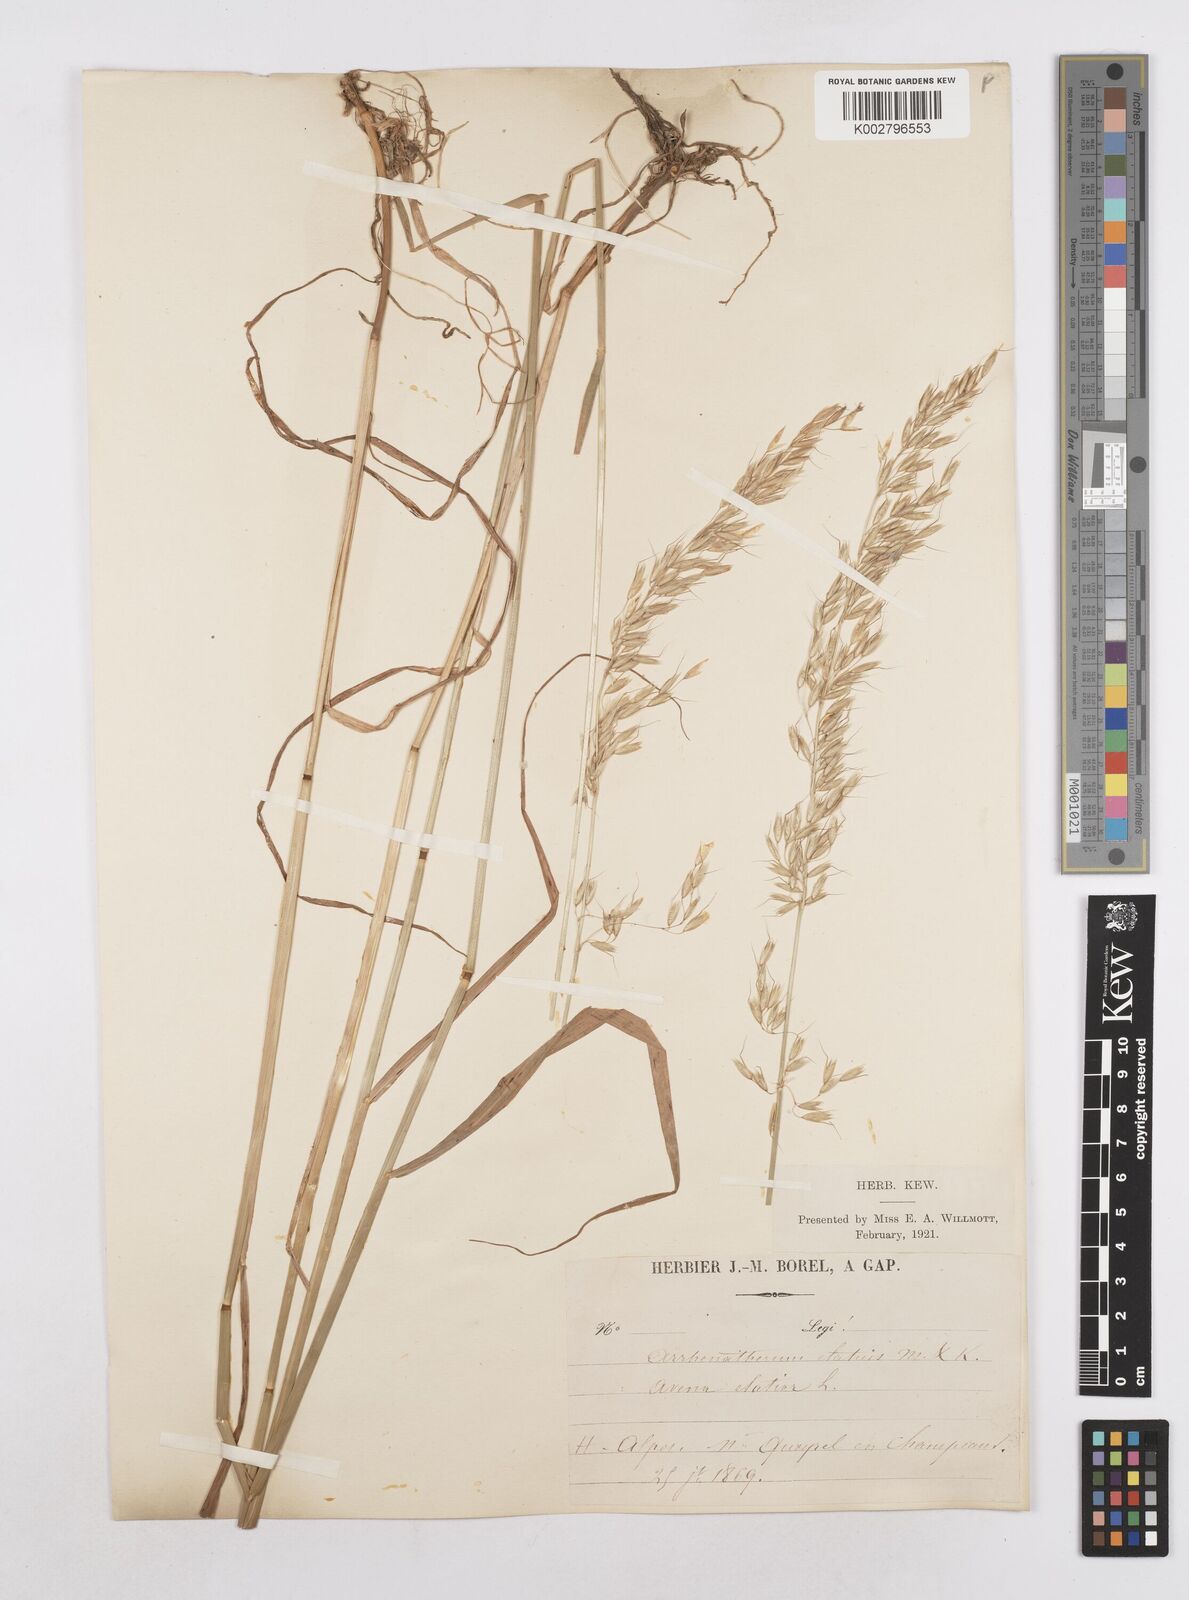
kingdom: Plantae
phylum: Tracheophyta
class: Liliopsida
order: Poales
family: Poaceae
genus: Arrhenatherum
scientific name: Arrhenatherum elatius
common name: Tall oatgrass
